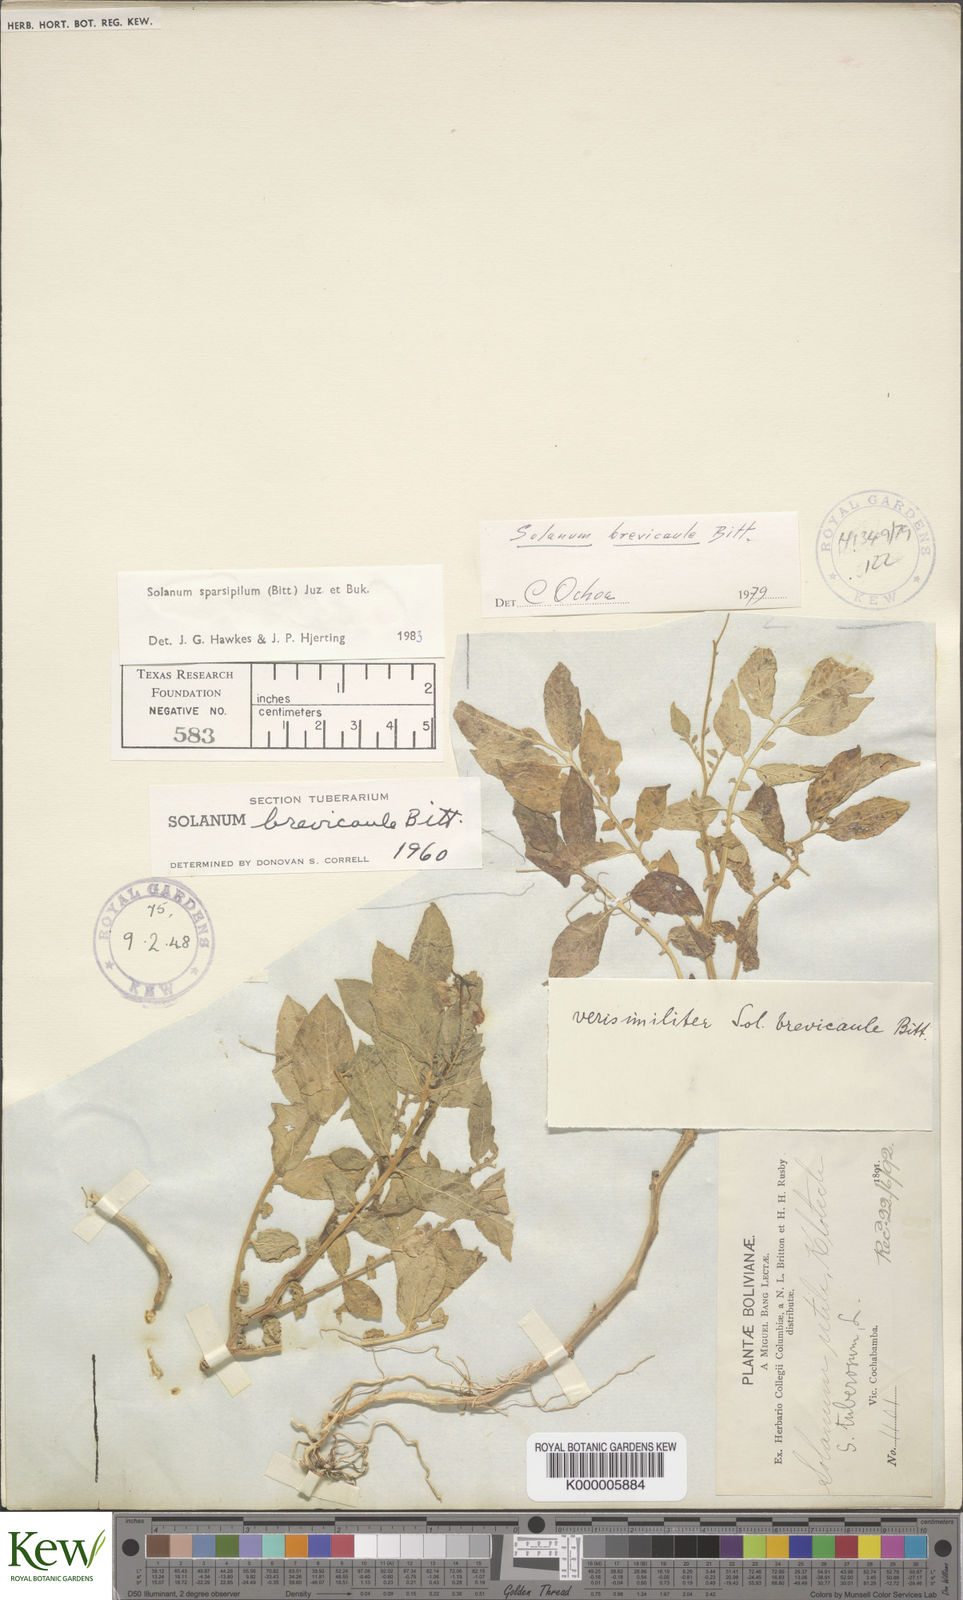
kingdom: Plantae
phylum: Tracheophyta
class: Magnoliopsida
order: Solanales
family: Solanaceae
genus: Solanum
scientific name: Solanum brevicaule
